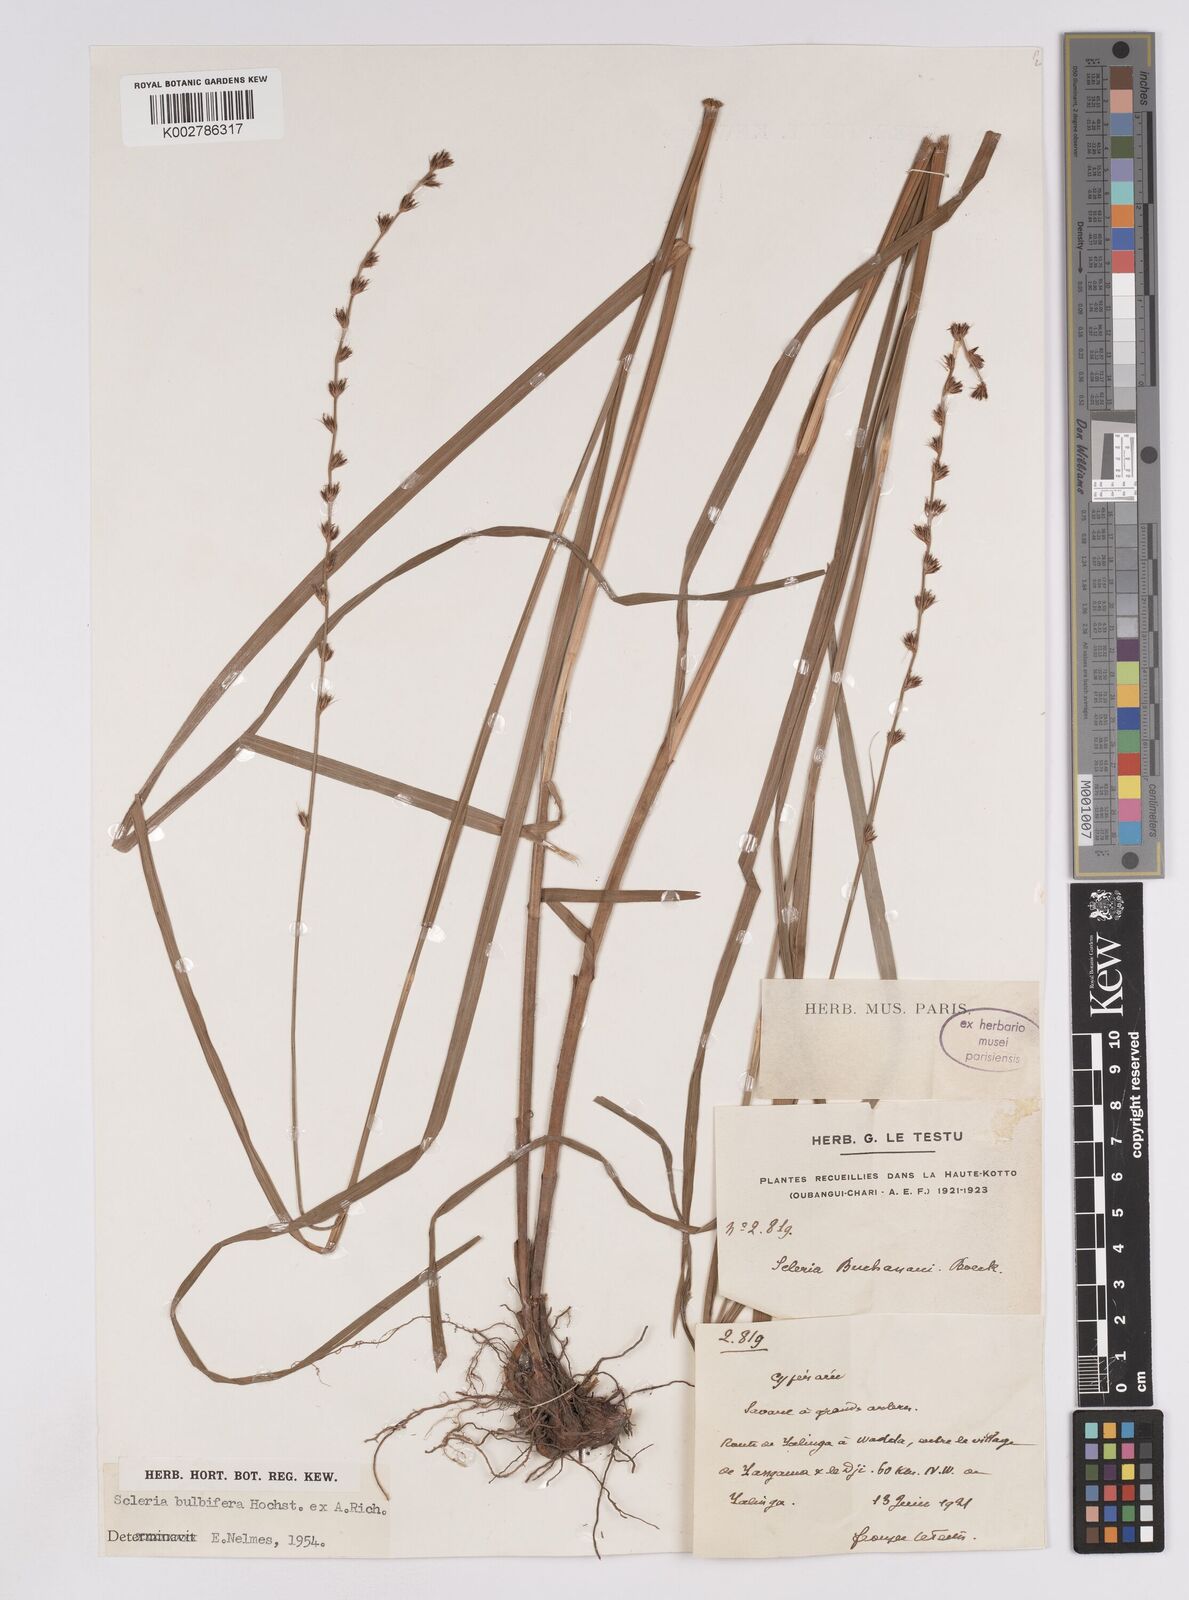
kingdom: Plantae
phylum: Tracheophyta
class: Liliopsida
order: Poales
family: Cyperaceae
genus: Scleria
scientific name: Scleria bulbifera
